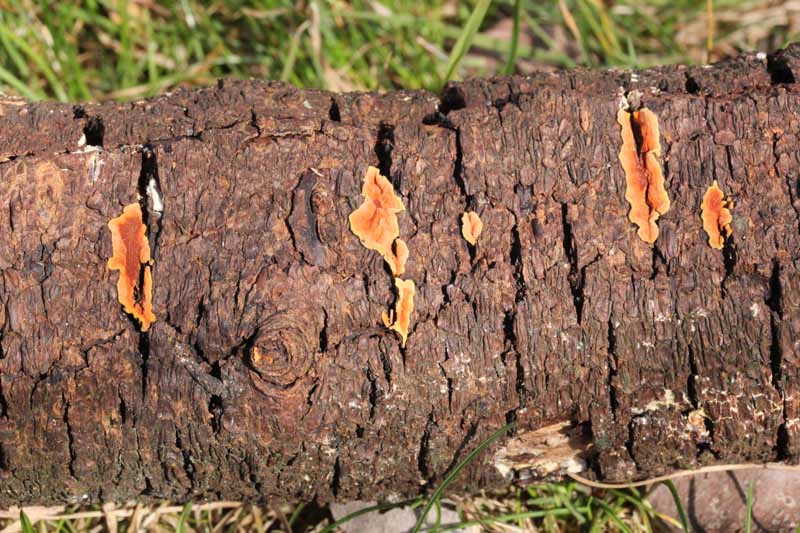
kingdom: Fungi
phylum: Ascomycota
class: Sordariomycetes
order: Xylariales
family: Hypoxylaceae
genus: Hypoxylon
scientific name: Hypoxylon subticinense
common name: filtet kulbær
